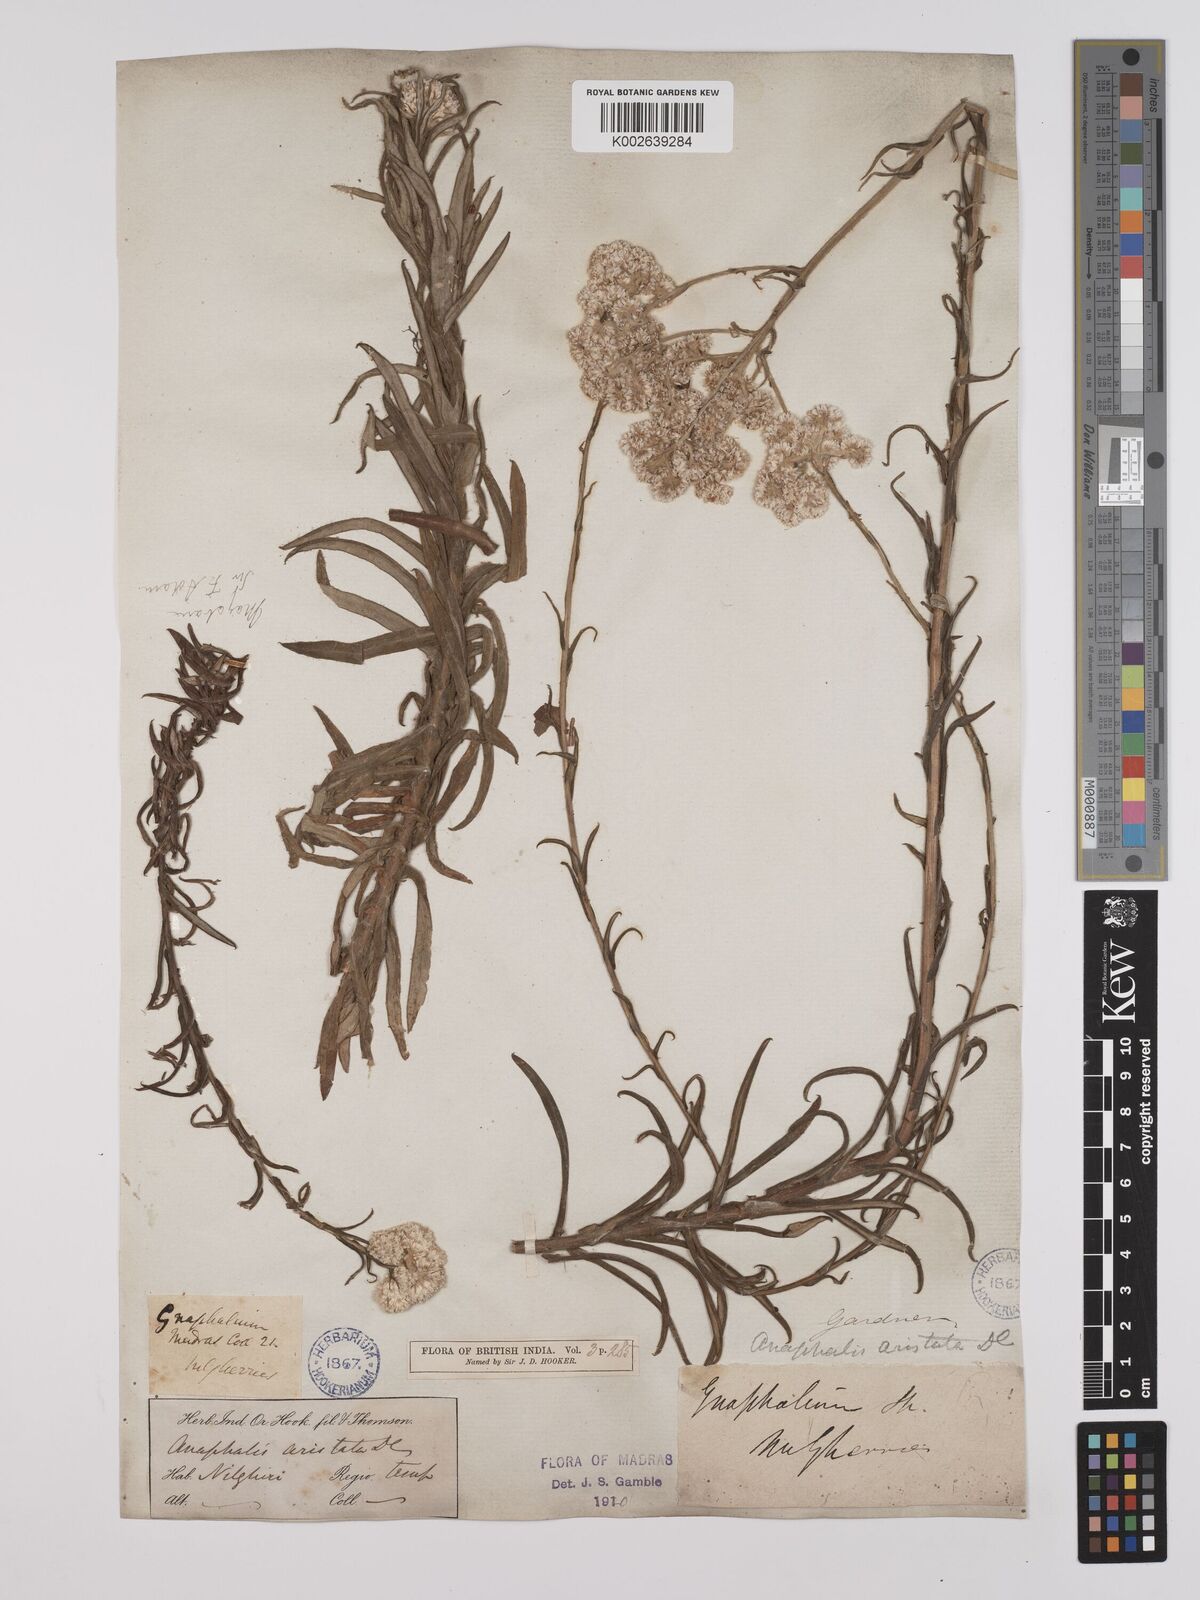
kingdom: Plantae
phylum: Tracheophyta
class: Magnoliopsida
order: Asterales
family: Asteraceae
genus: Anaphalis
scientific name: Anaphalis aristata
